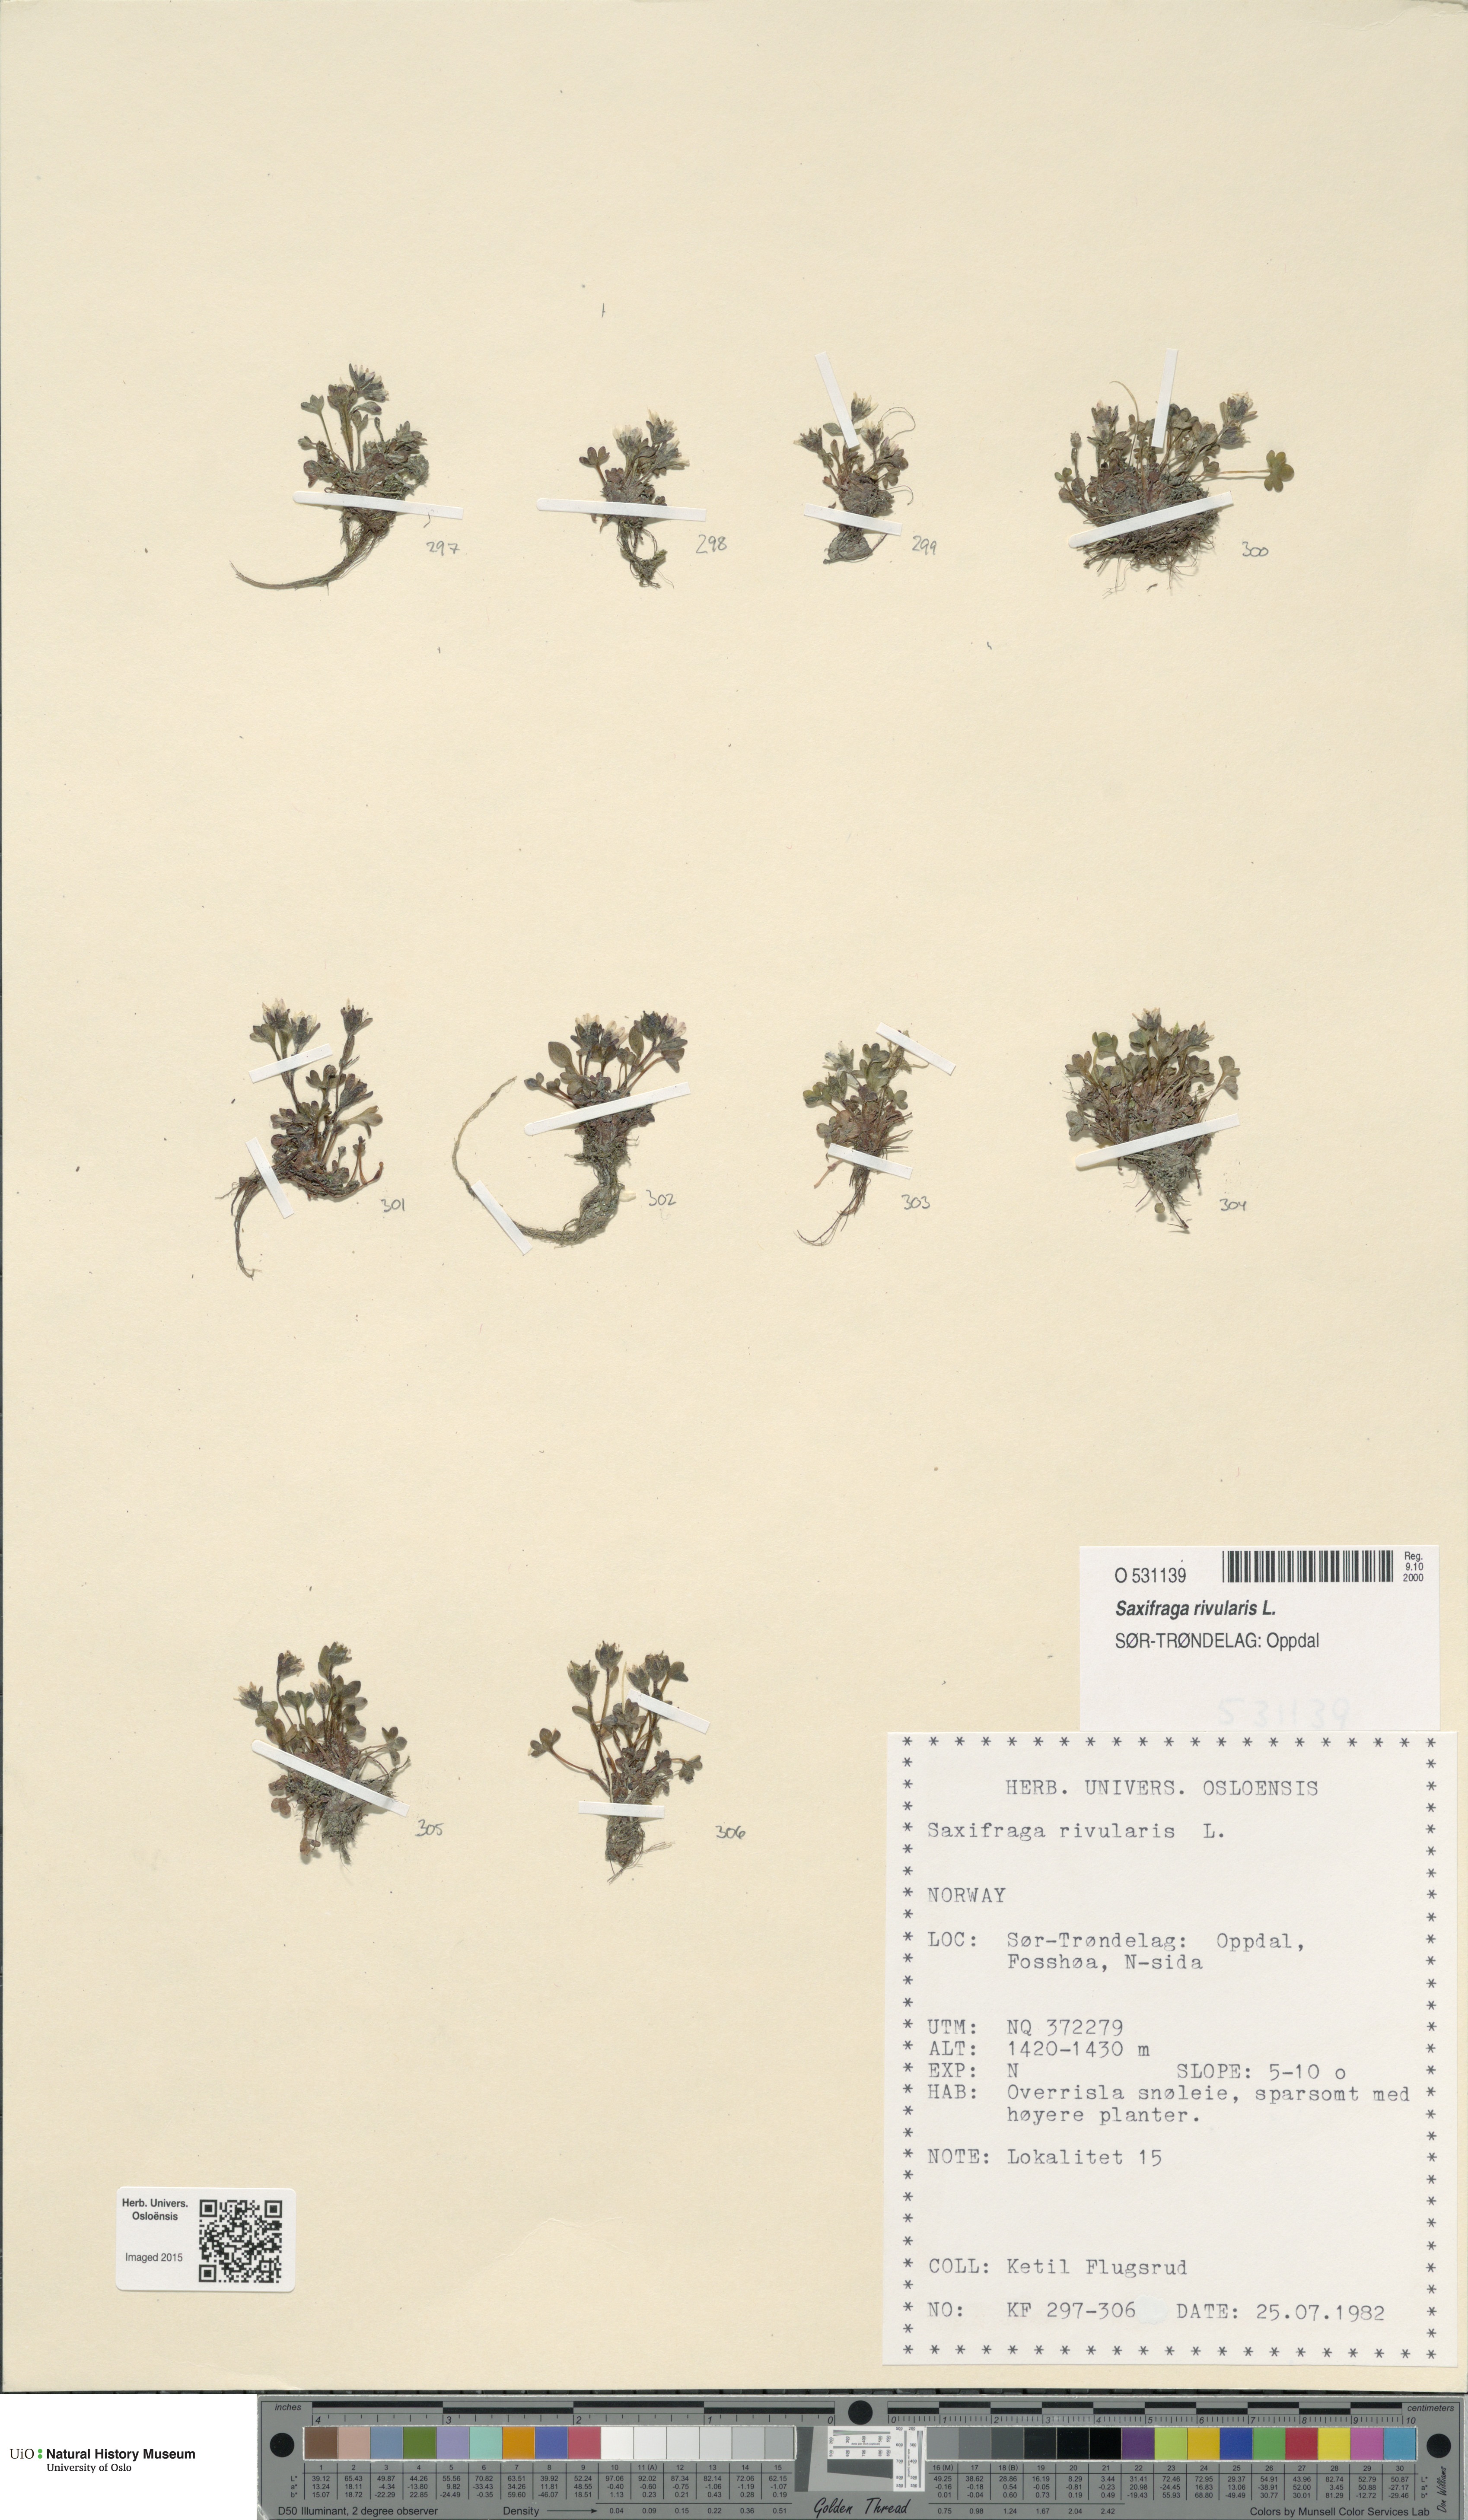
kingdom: Plantae
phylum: Tracheophyta
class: Magnoliopsida
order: Saxifragales
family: Saxifragaceae
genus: Saxifraga
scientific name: Saxifraga rivularis
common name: Highland saxifrage
